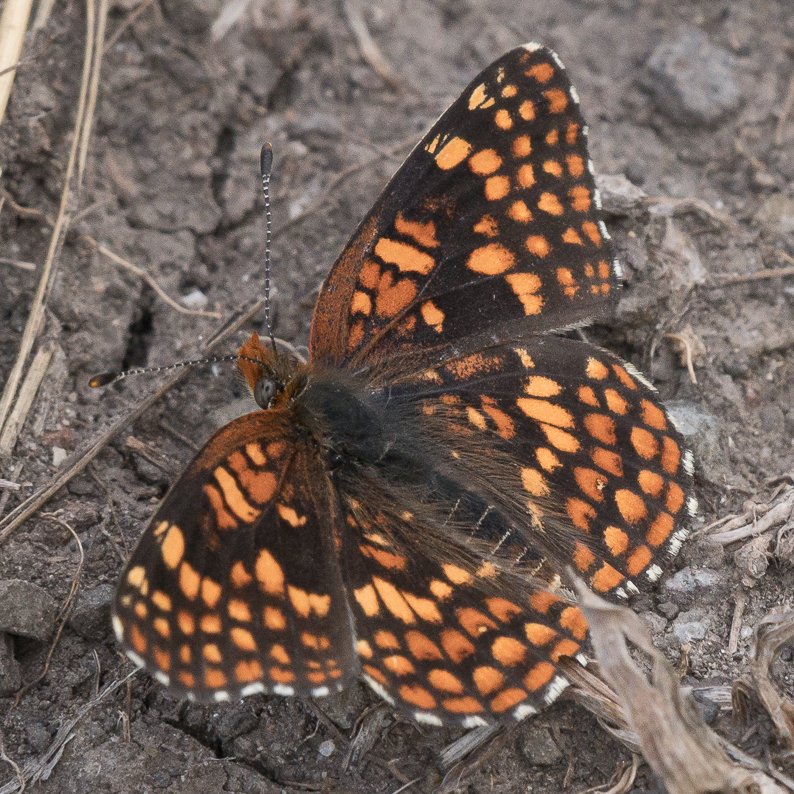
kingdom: Animalia
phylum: Arthropoda
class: Insecta
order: Lepidoptera
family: Nymphalidae
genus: Chlosyne
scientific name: Chlosyne palla
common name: Northern Checkerspot
